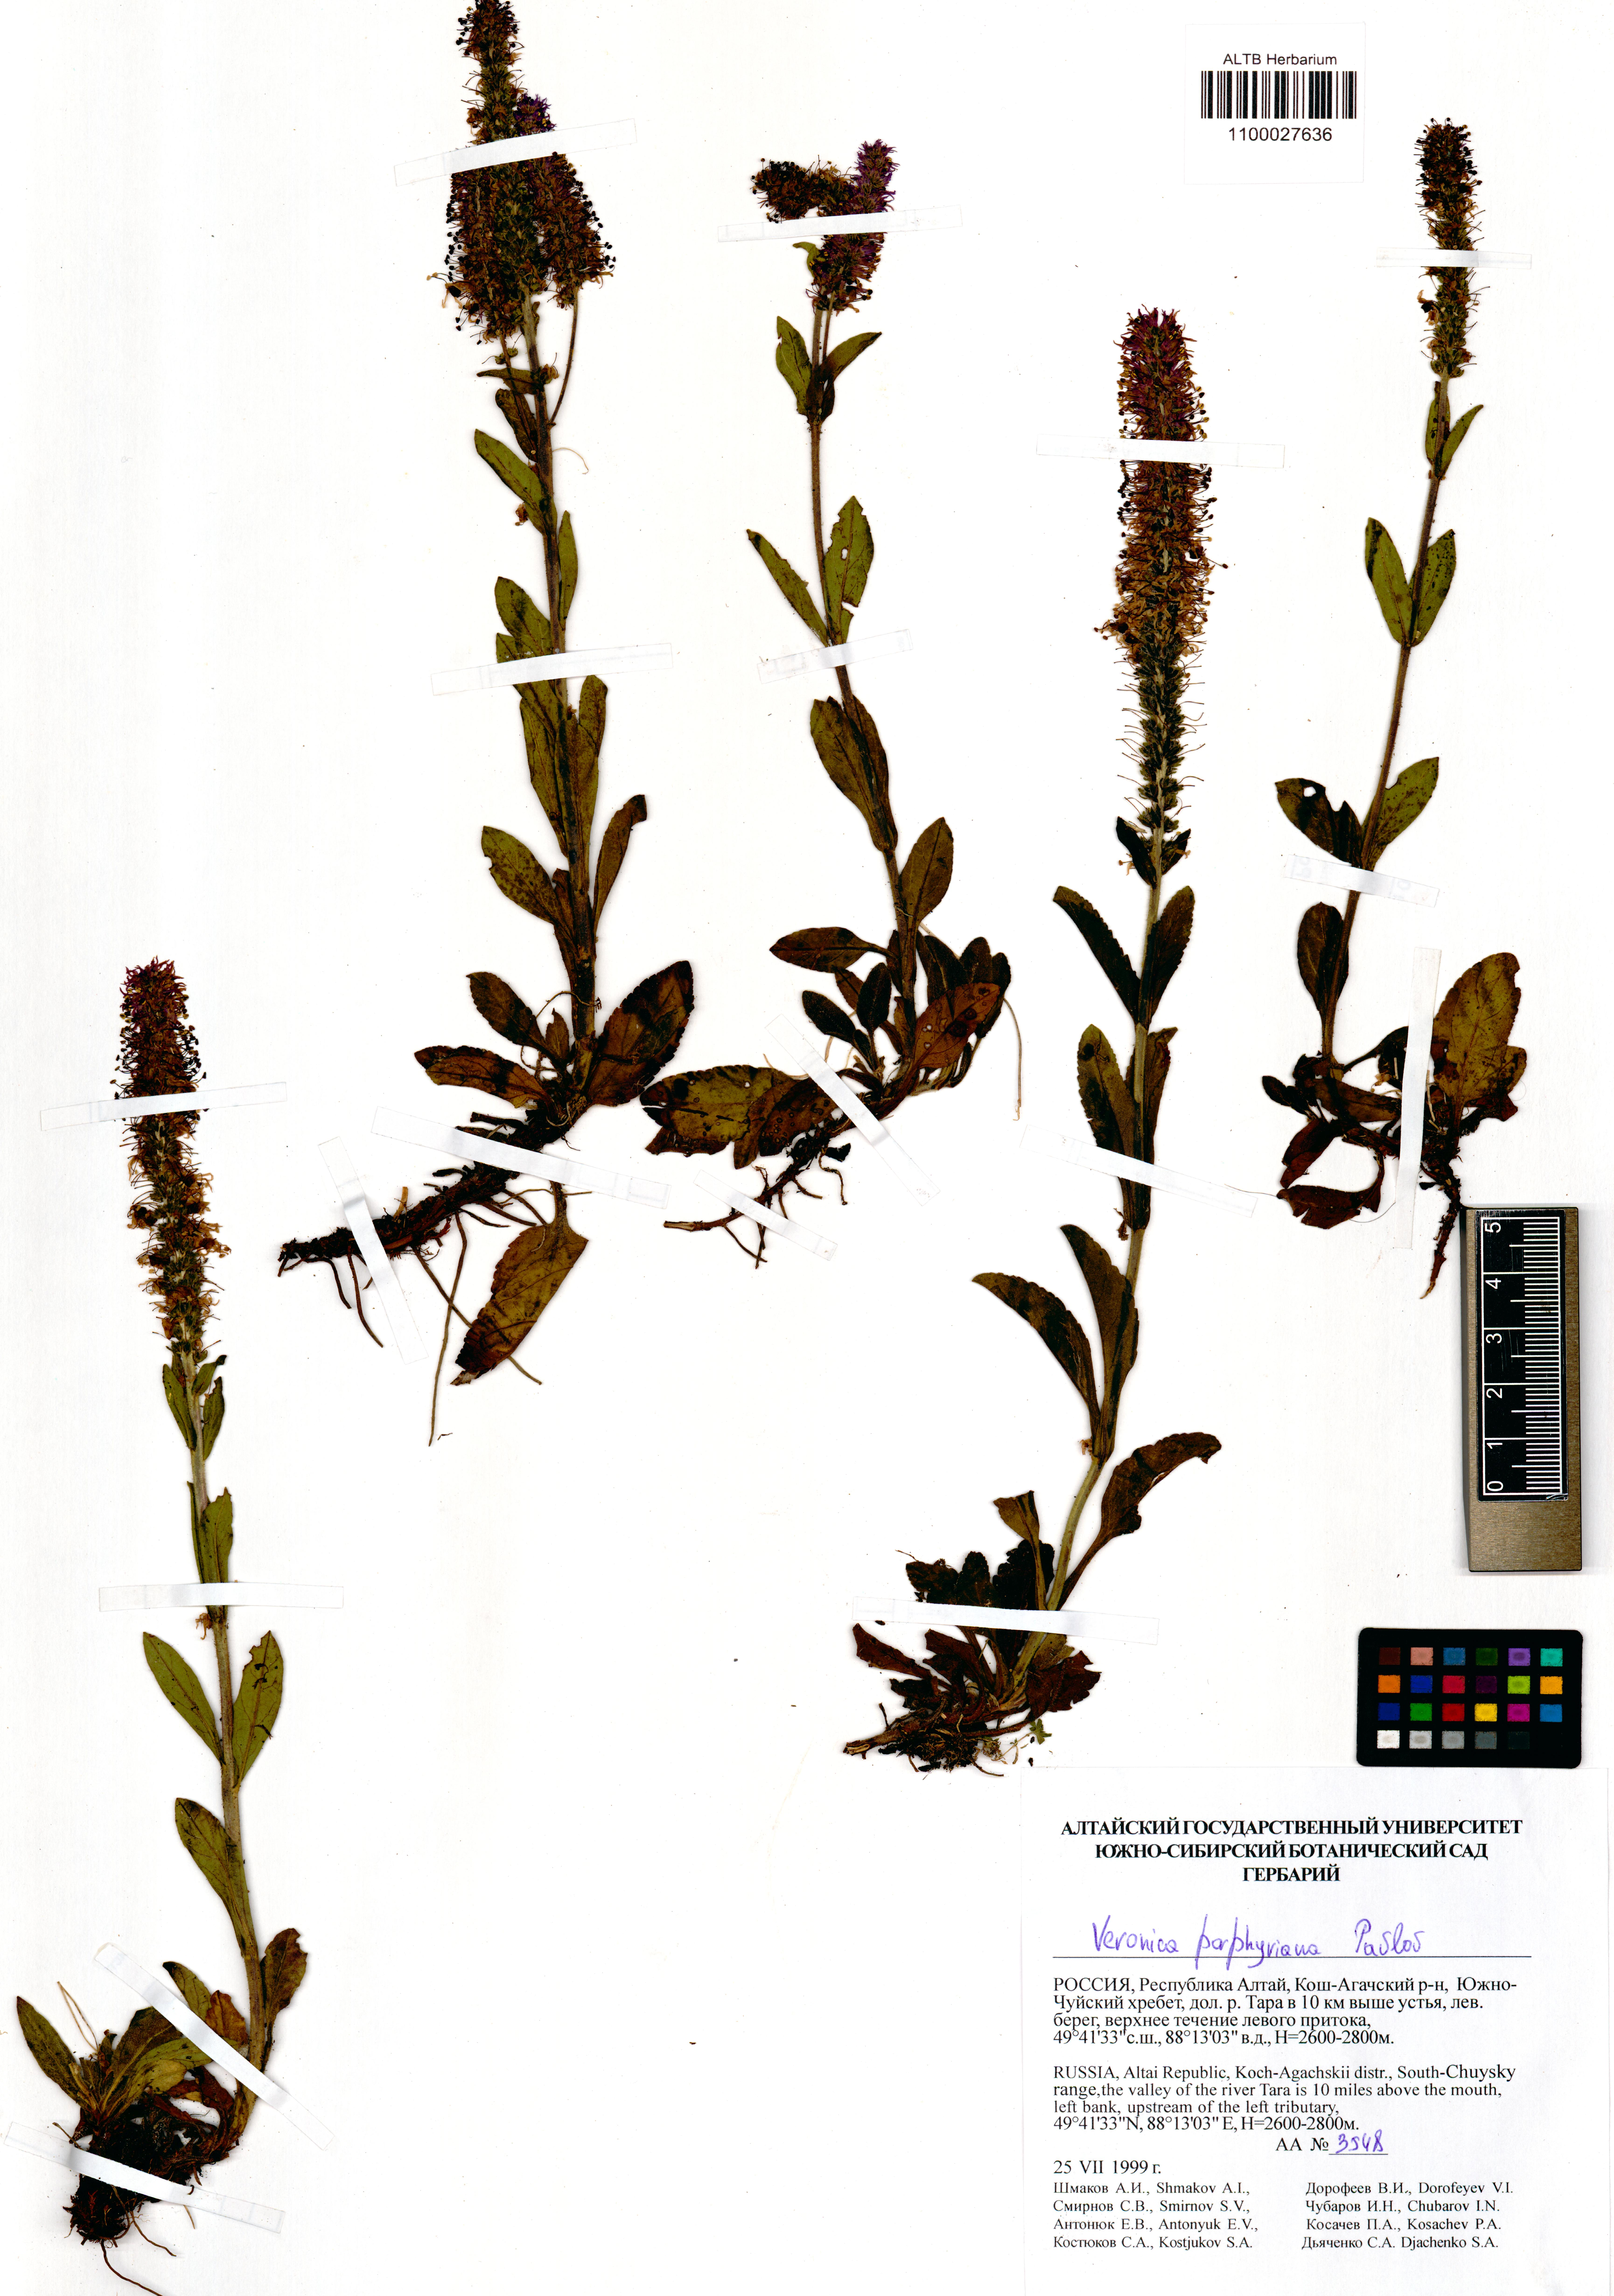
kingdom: Plantae
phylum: Tracheophyta
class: Magnoliopsida
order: Lamiales
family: Plantaginaceae
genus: Veronica
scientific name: Veronica porphyriana
